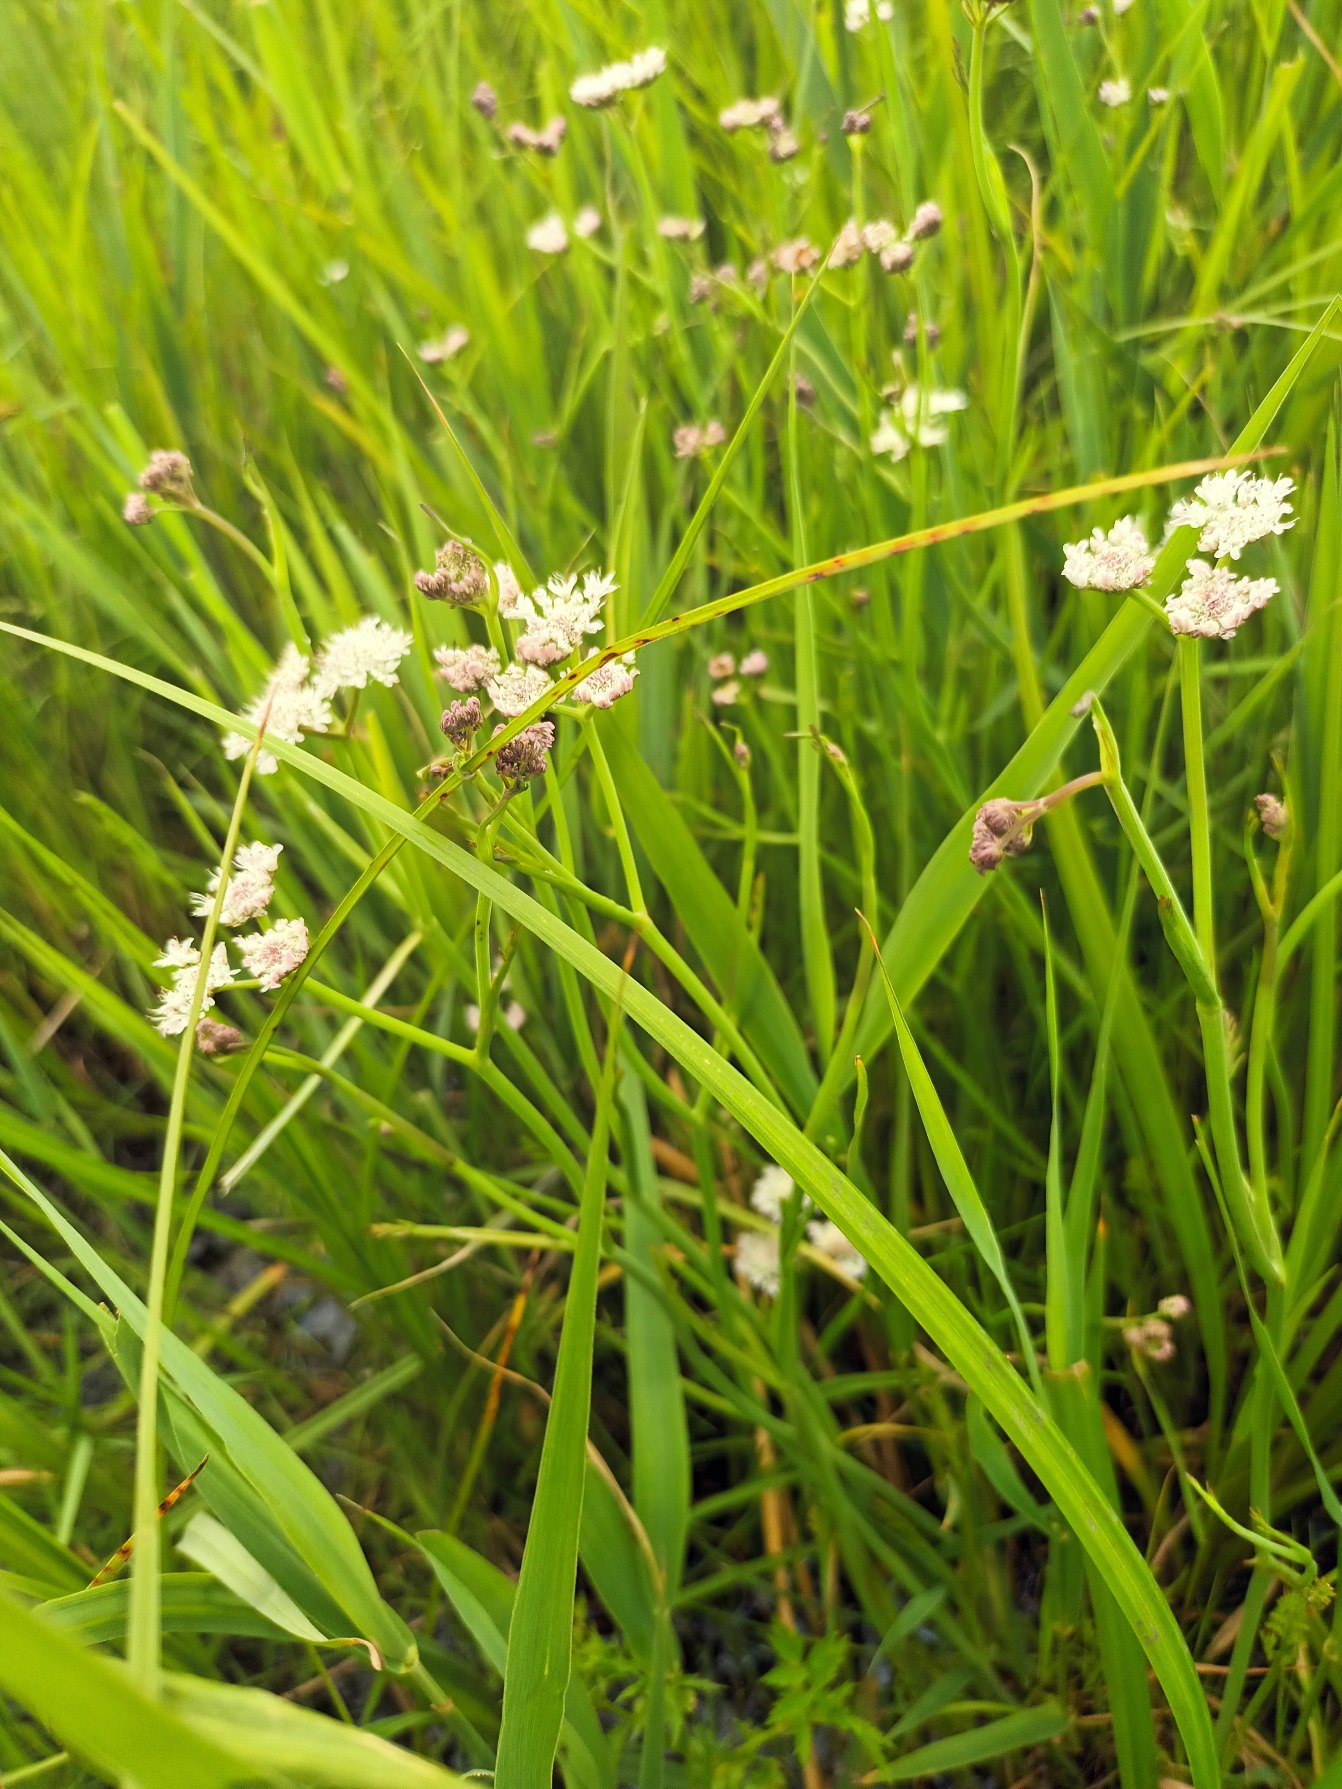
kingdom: Plantae
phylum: Tracheophyta
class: Magnoliopsida
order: Apiales
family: Apiaceae
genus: Oenanthe
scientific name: Oenanthe fistulosa
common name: Vand-klaseskærm
